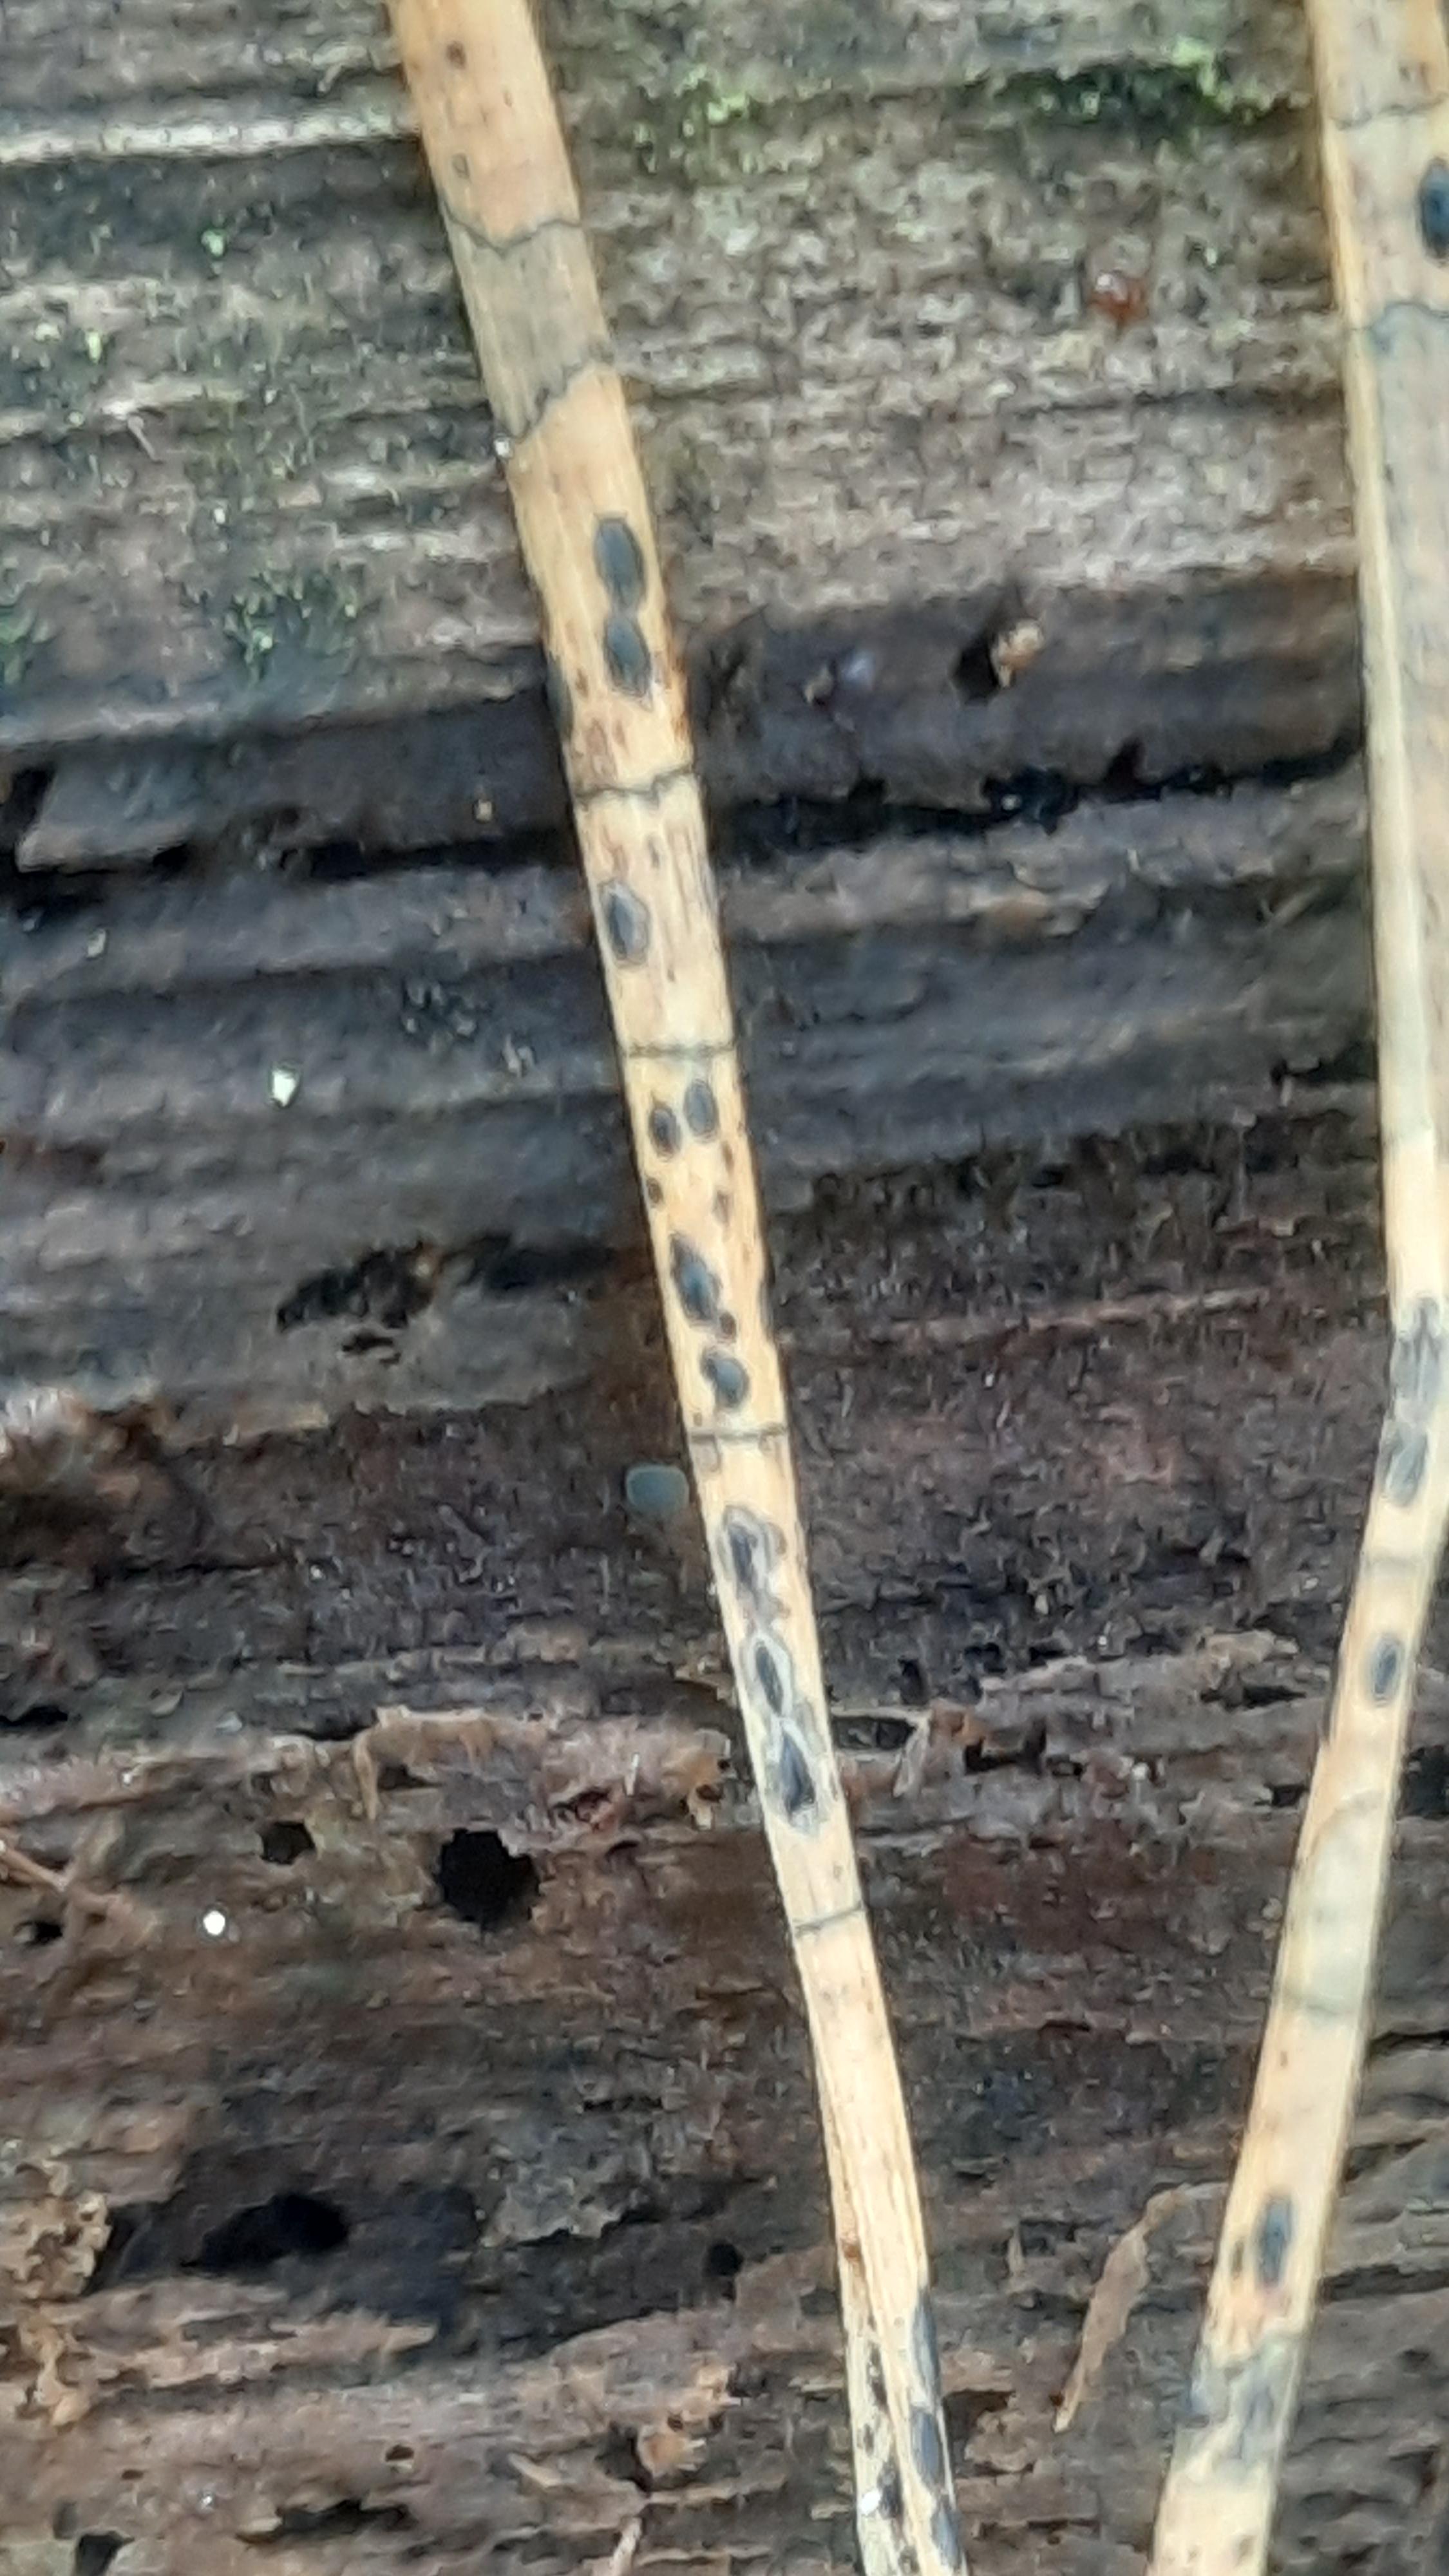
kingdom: Fungi
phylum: Ascomycota
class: Leotiomycetes
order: Rhytismatales
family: Rhytismataceae
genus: Lophodermium
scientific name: Lophodermium pinastri
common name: fyrre-fureplet
